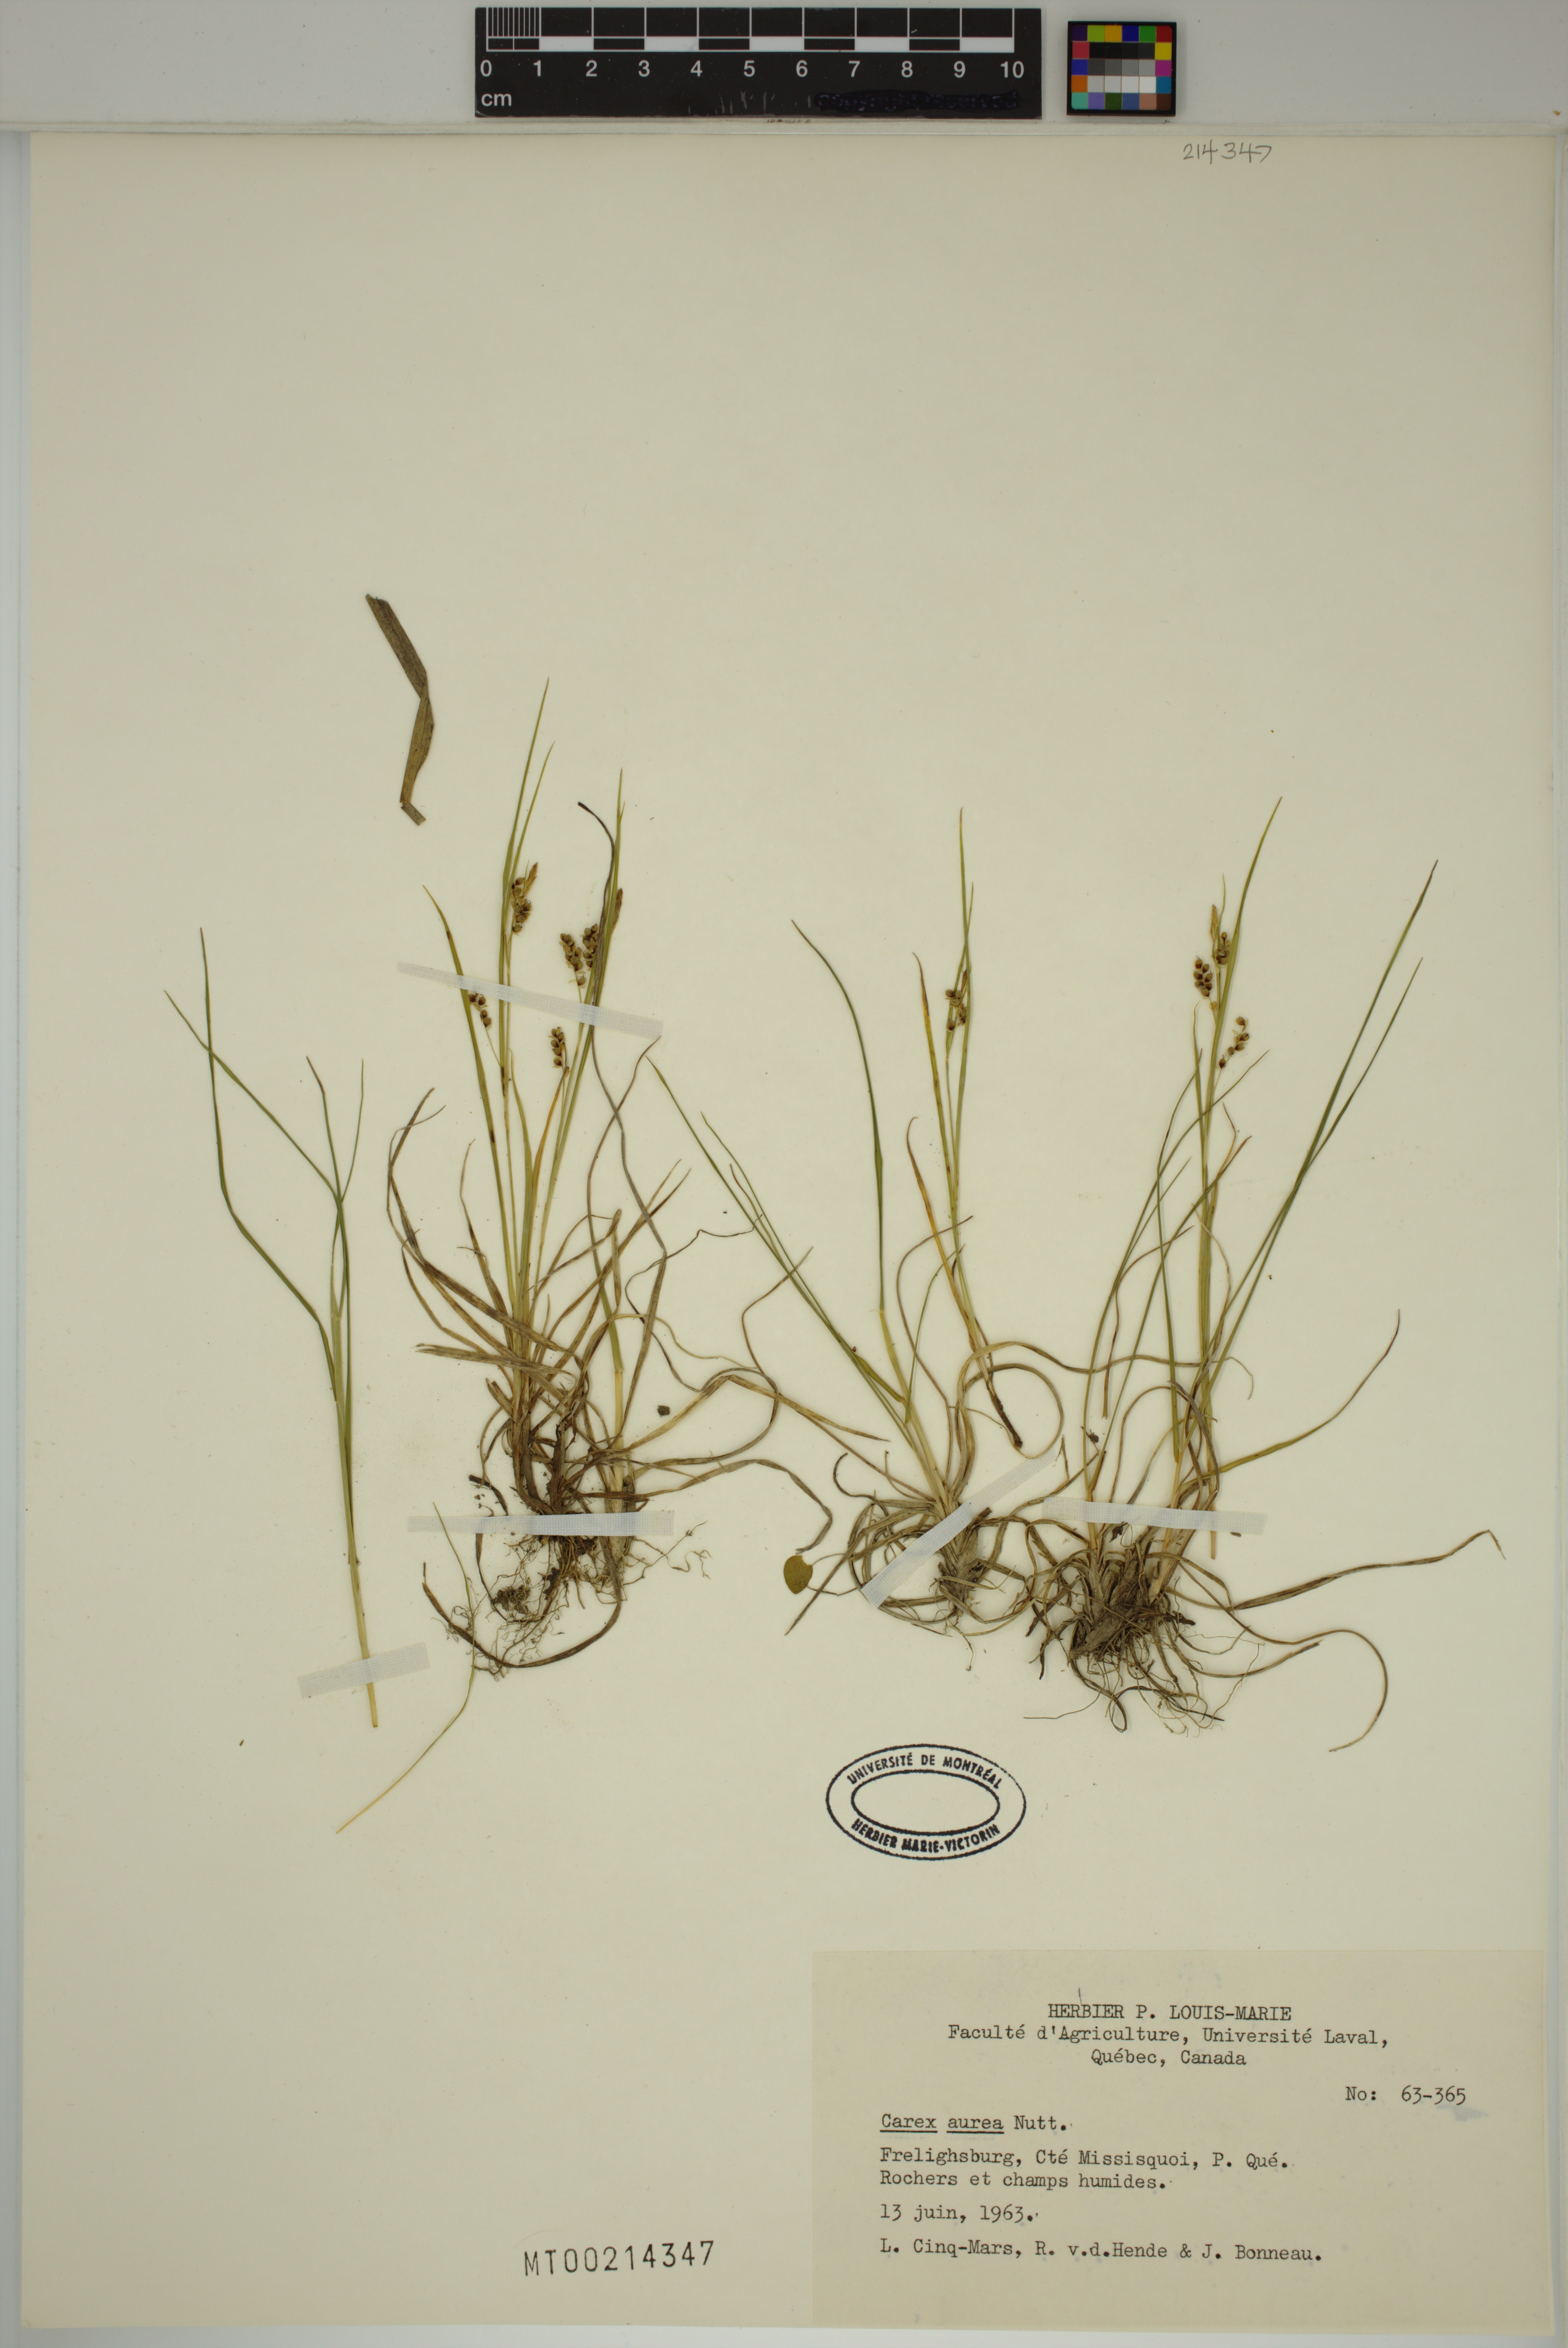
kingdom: Plantae
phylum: Tracheophyta
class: Liliopsida
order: Poales
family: Cyperaceae
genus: Carex
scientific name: Carex aurea
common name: Golden sedge
